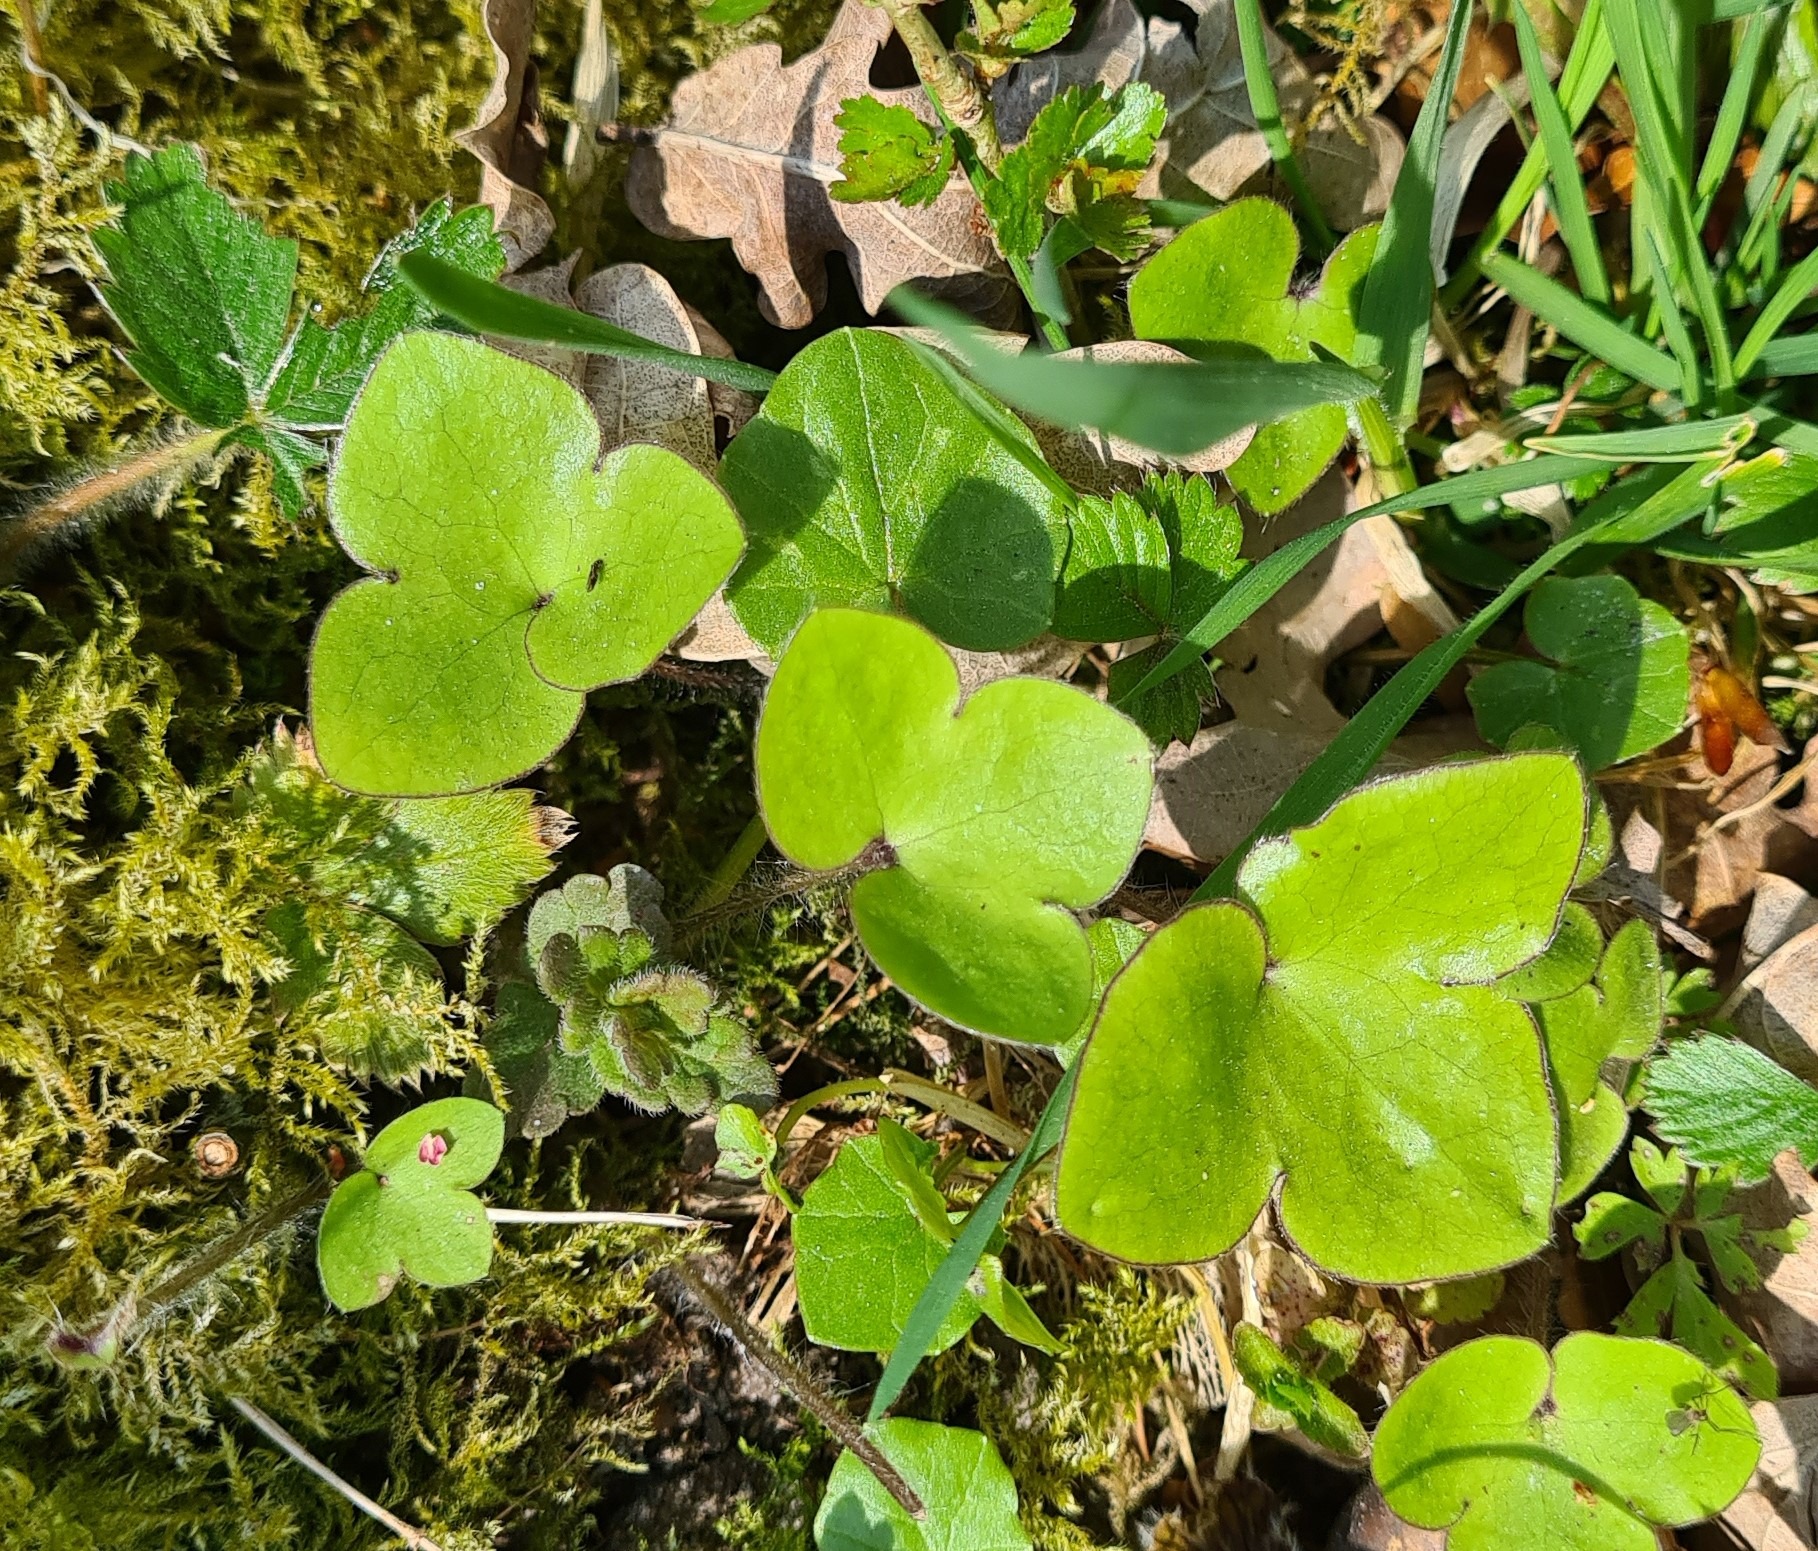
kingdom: Plantae
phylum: Tracheophyta
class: Magnoliopsida
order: Ranunculales
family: Ranunculaceae
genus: Hepatica
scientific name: Hepatica nobilis
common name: Blå anemone
